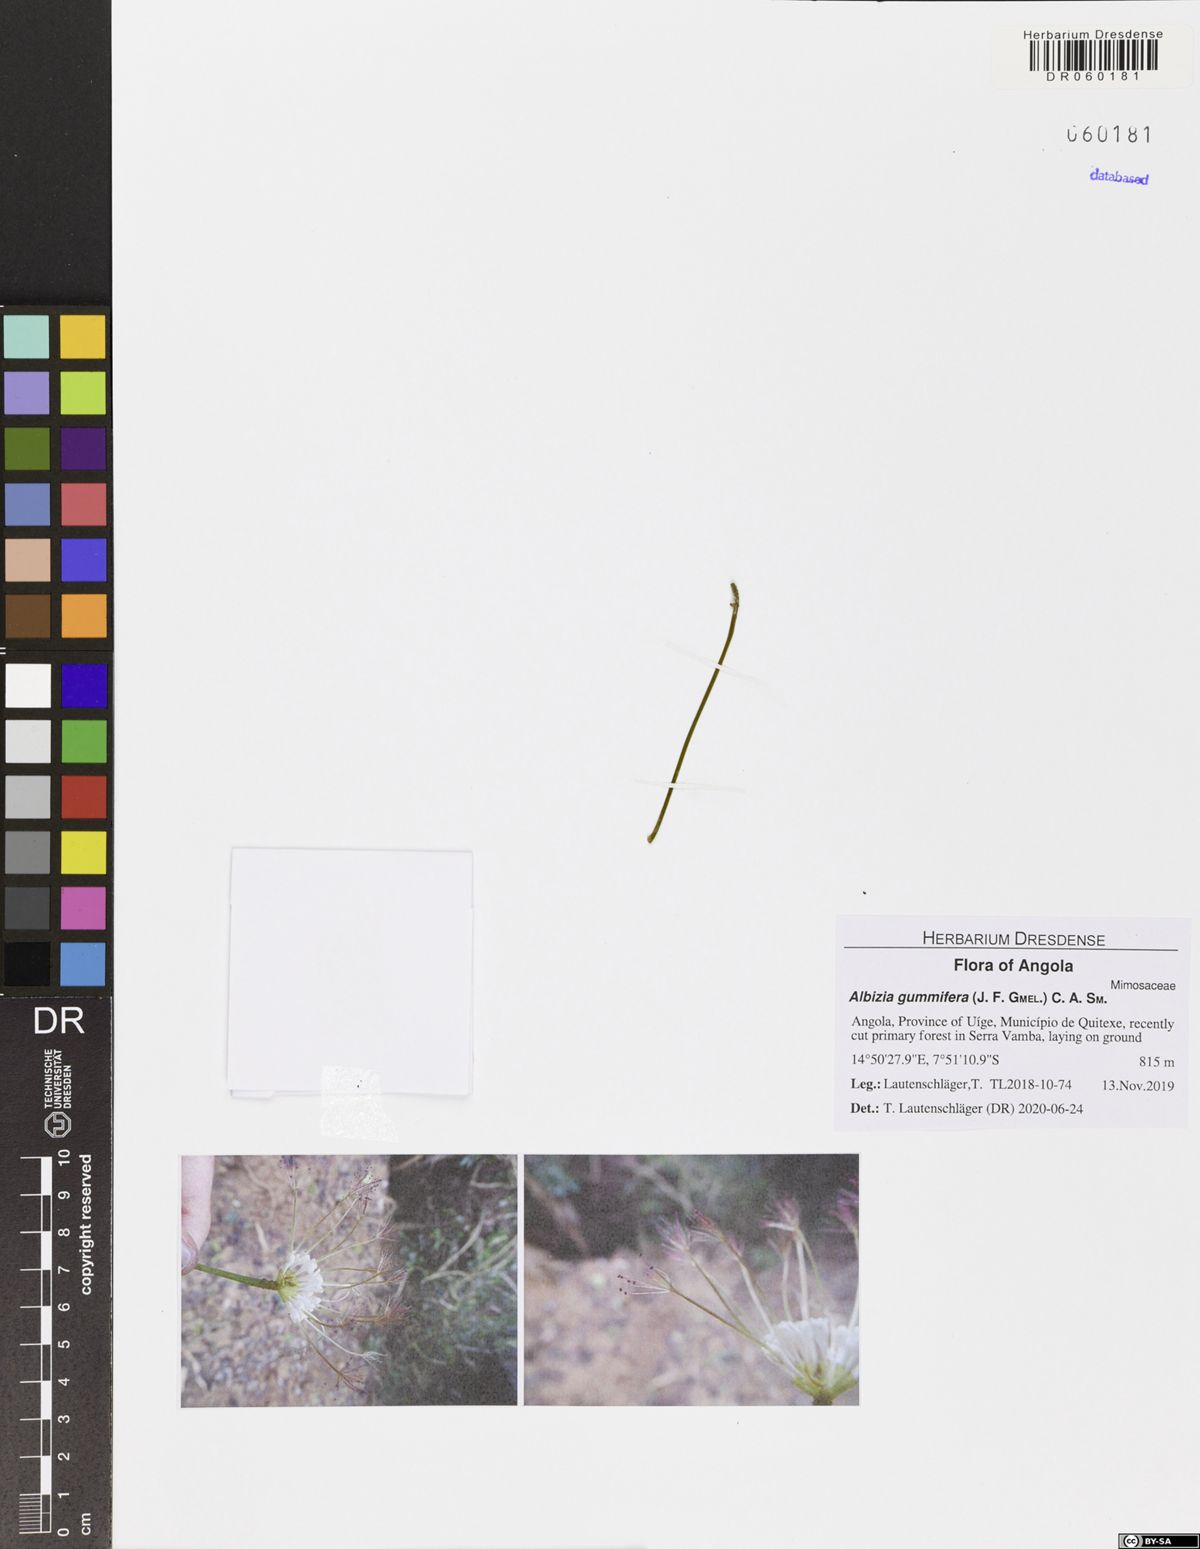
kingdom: Plantae
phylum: Tracheophyta
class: Magnoliopsida
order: Fabales
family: Fabaceae
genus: Albizia
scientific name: Albizia gummifera
